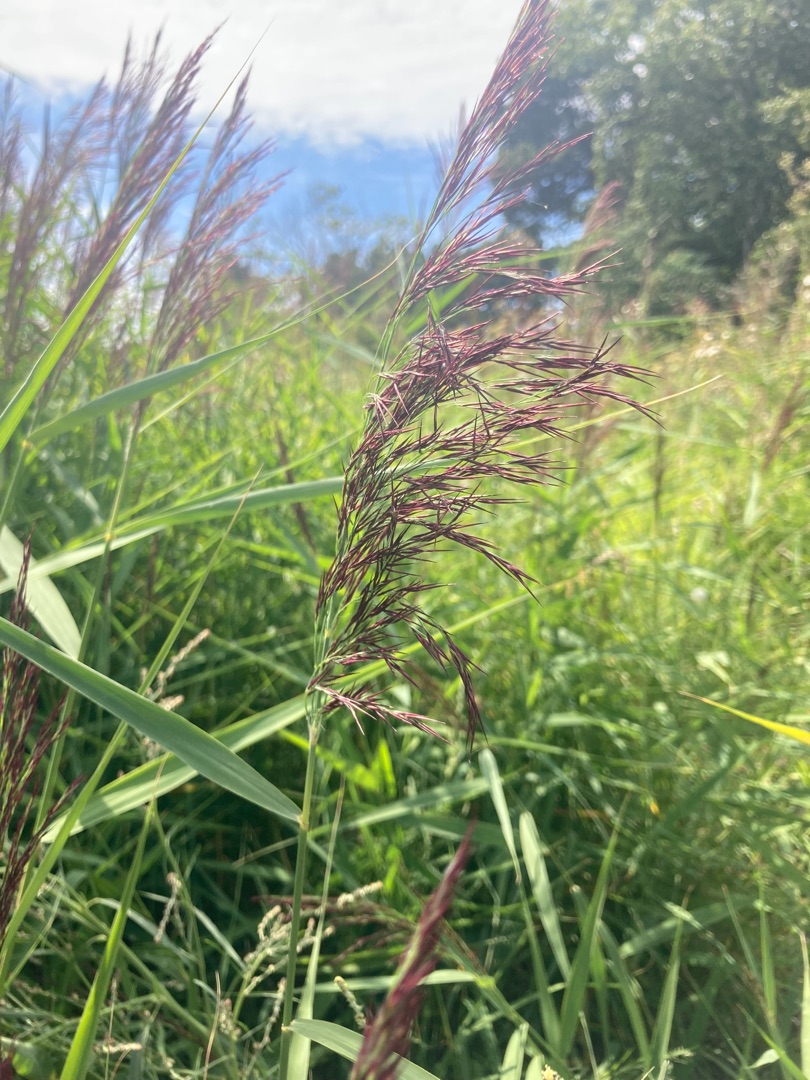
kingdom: Plantae
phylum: Tracheophyta
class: Liliopsida
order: Poales
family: Poaceae
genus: Phragmites
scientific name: Phragmites australis
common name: Tagrør
